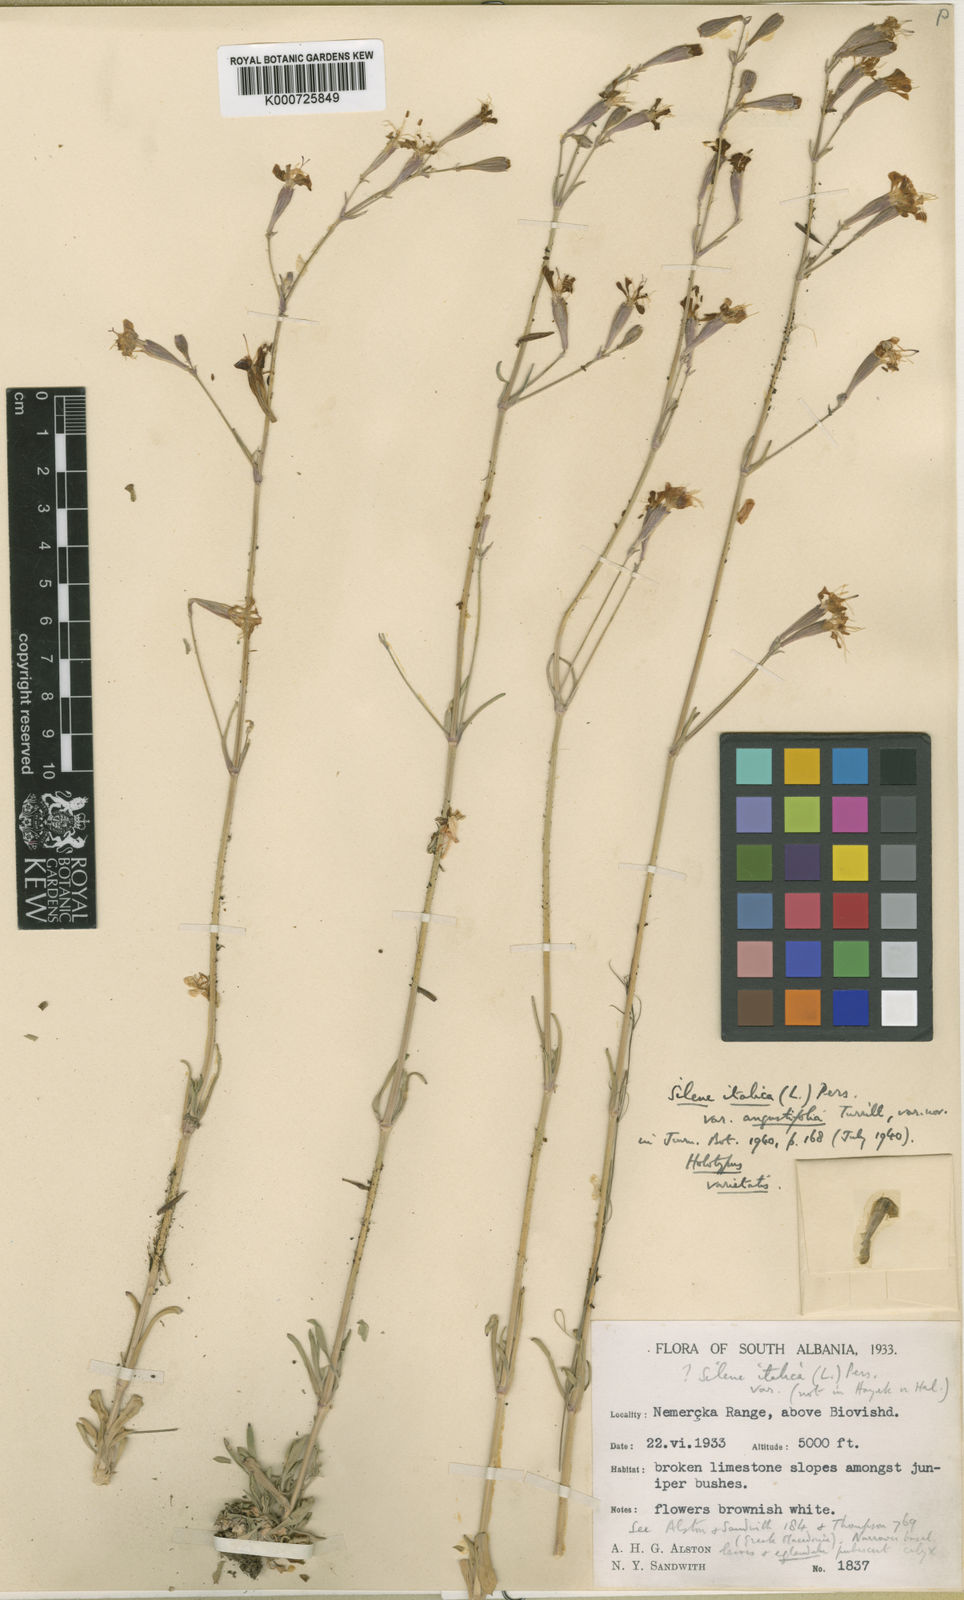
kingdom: Plantae
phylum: Tracheophyta
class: Magnoliopsida
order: Caryophyllales
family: Caryophyllaceae
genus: Silene
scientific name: Silene italica
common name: Italian catchfly
